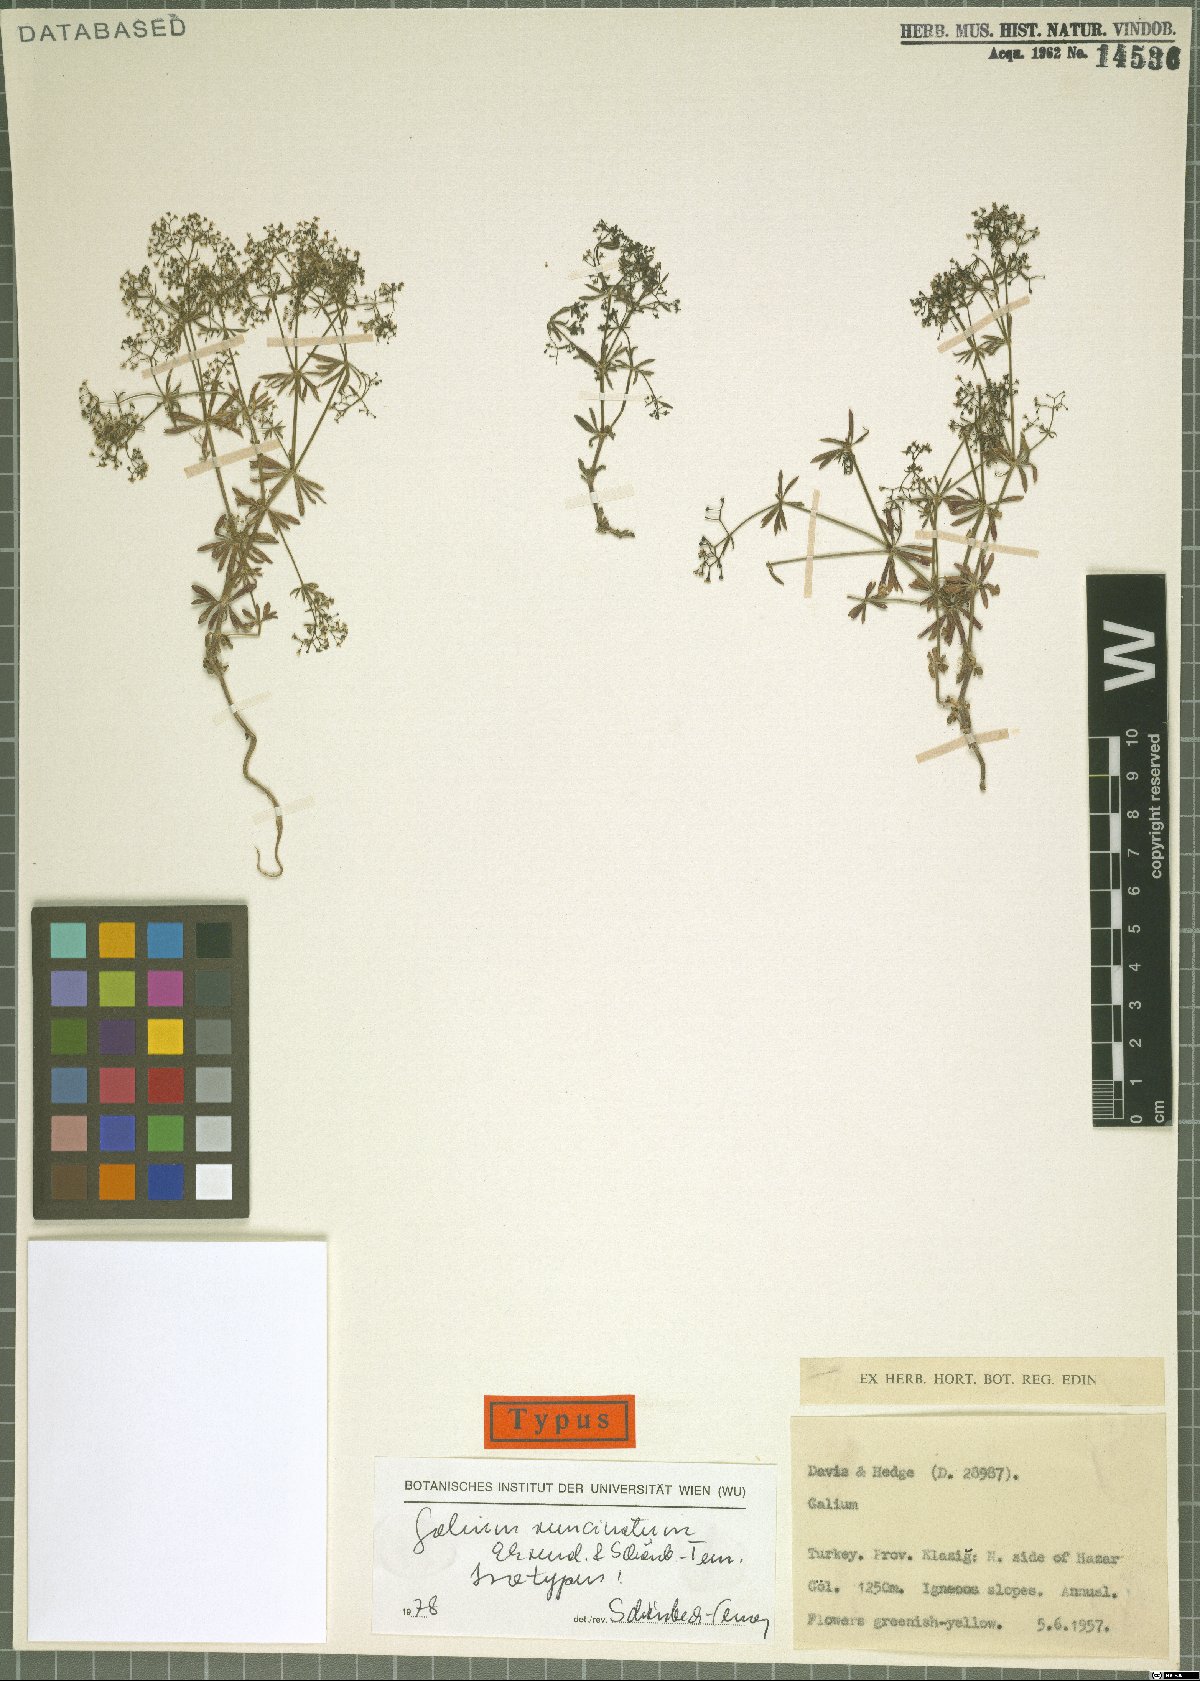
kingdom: Plantae
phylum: Tracheophyta
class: Magnoliopsida
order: Gentianales
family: Rubiaceae
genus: Galium
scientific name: Galium runcinatum
